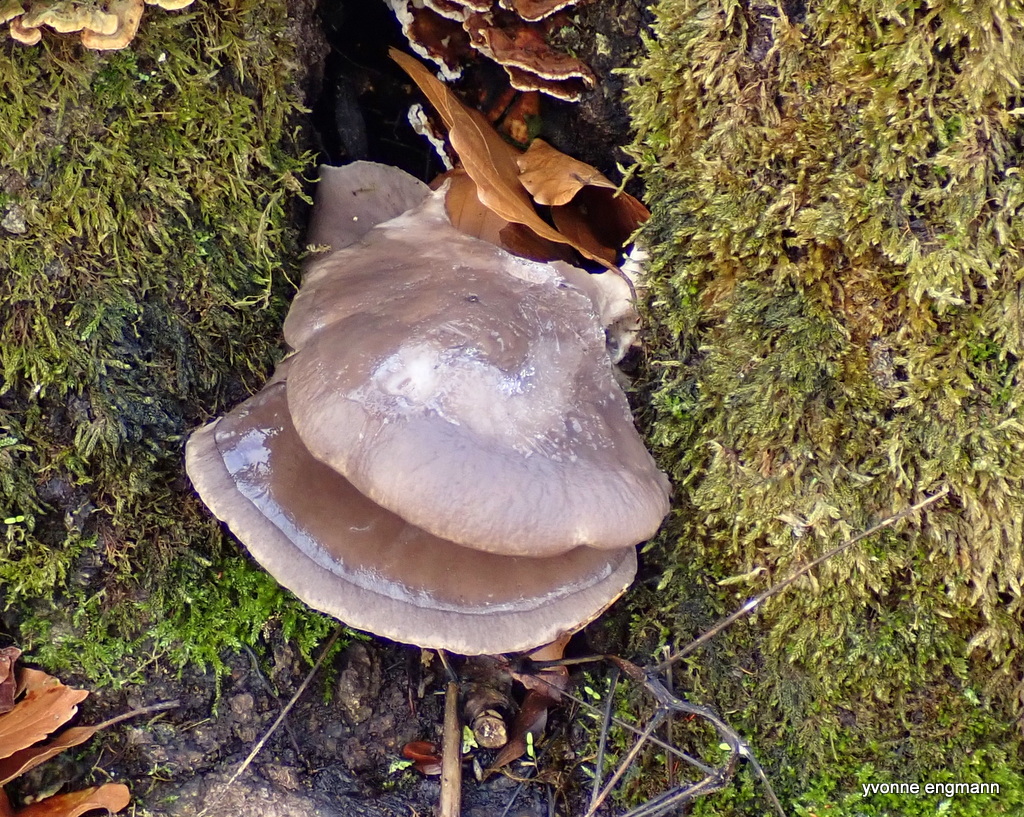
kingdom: Fungi
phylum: Basidiomycota
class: Agaricomycetes
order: Agaricales
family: Pleurotaceae
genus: Pleurotus
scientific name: Pleurotus ostreatus
